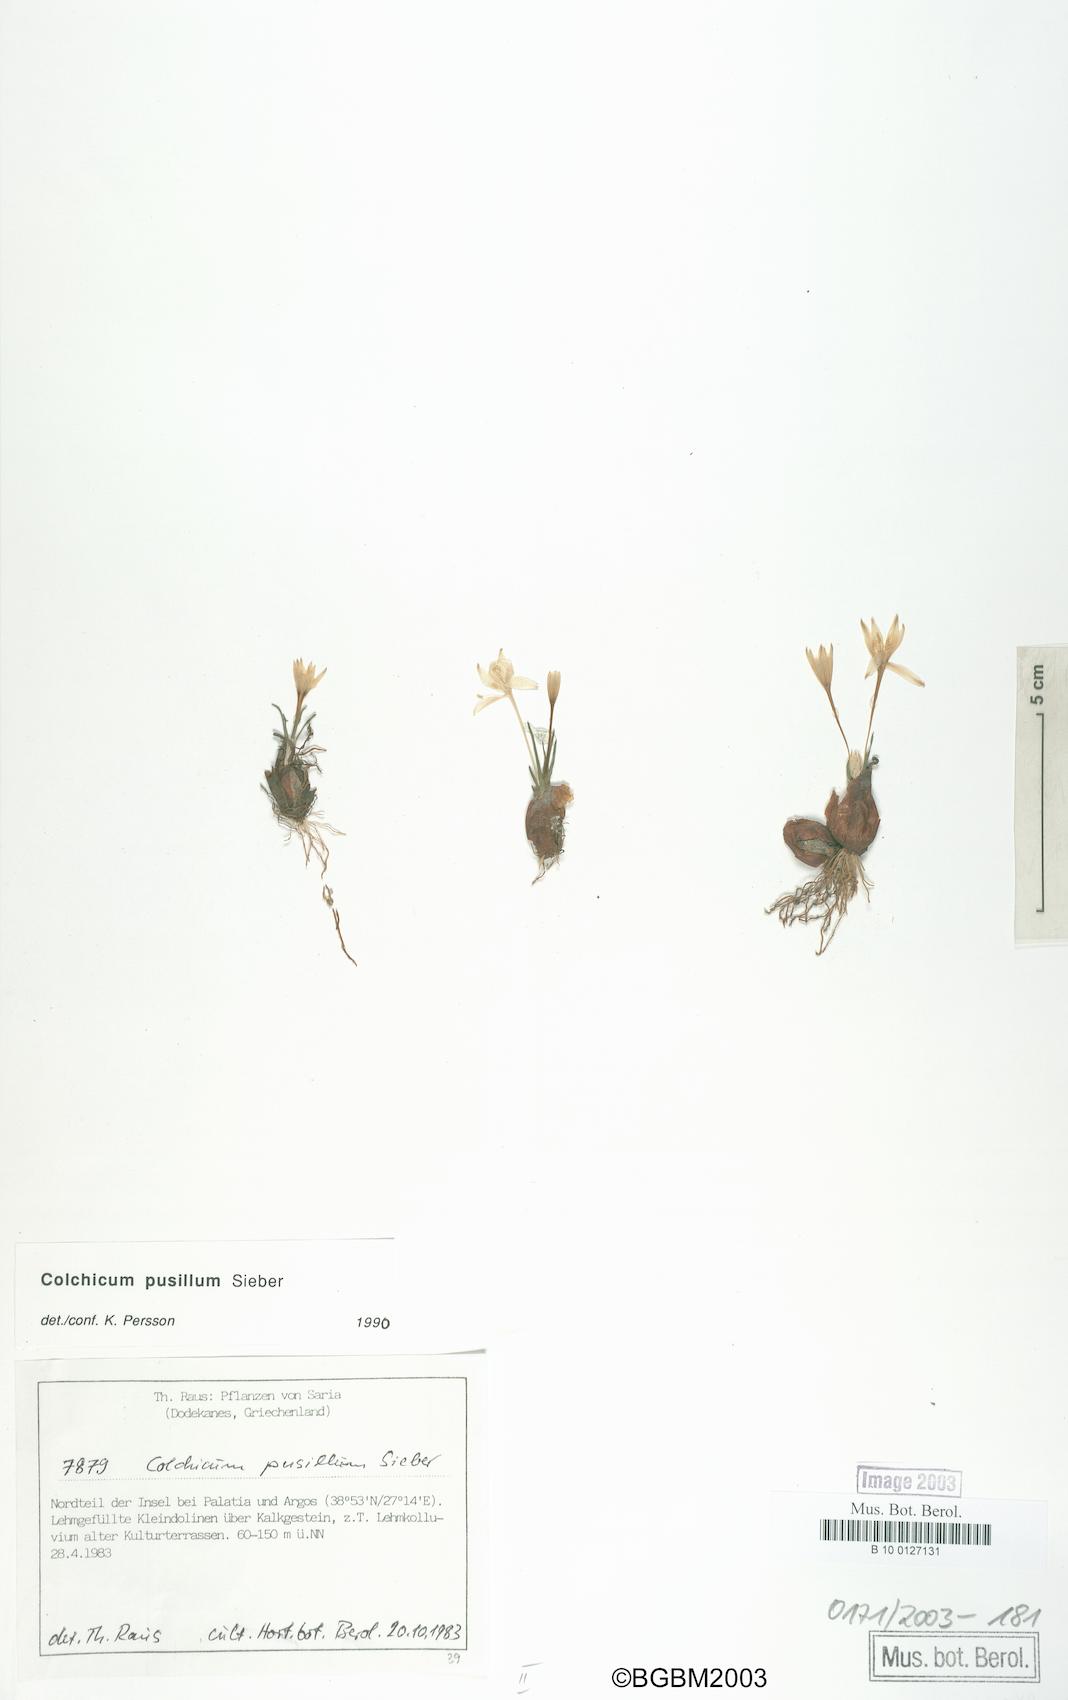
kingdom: Plantae
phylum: Tracheophyta
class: Liliopsida
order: Liliales
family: Colchicaceae
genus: Colchicum
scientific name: Colchicum pusillum
